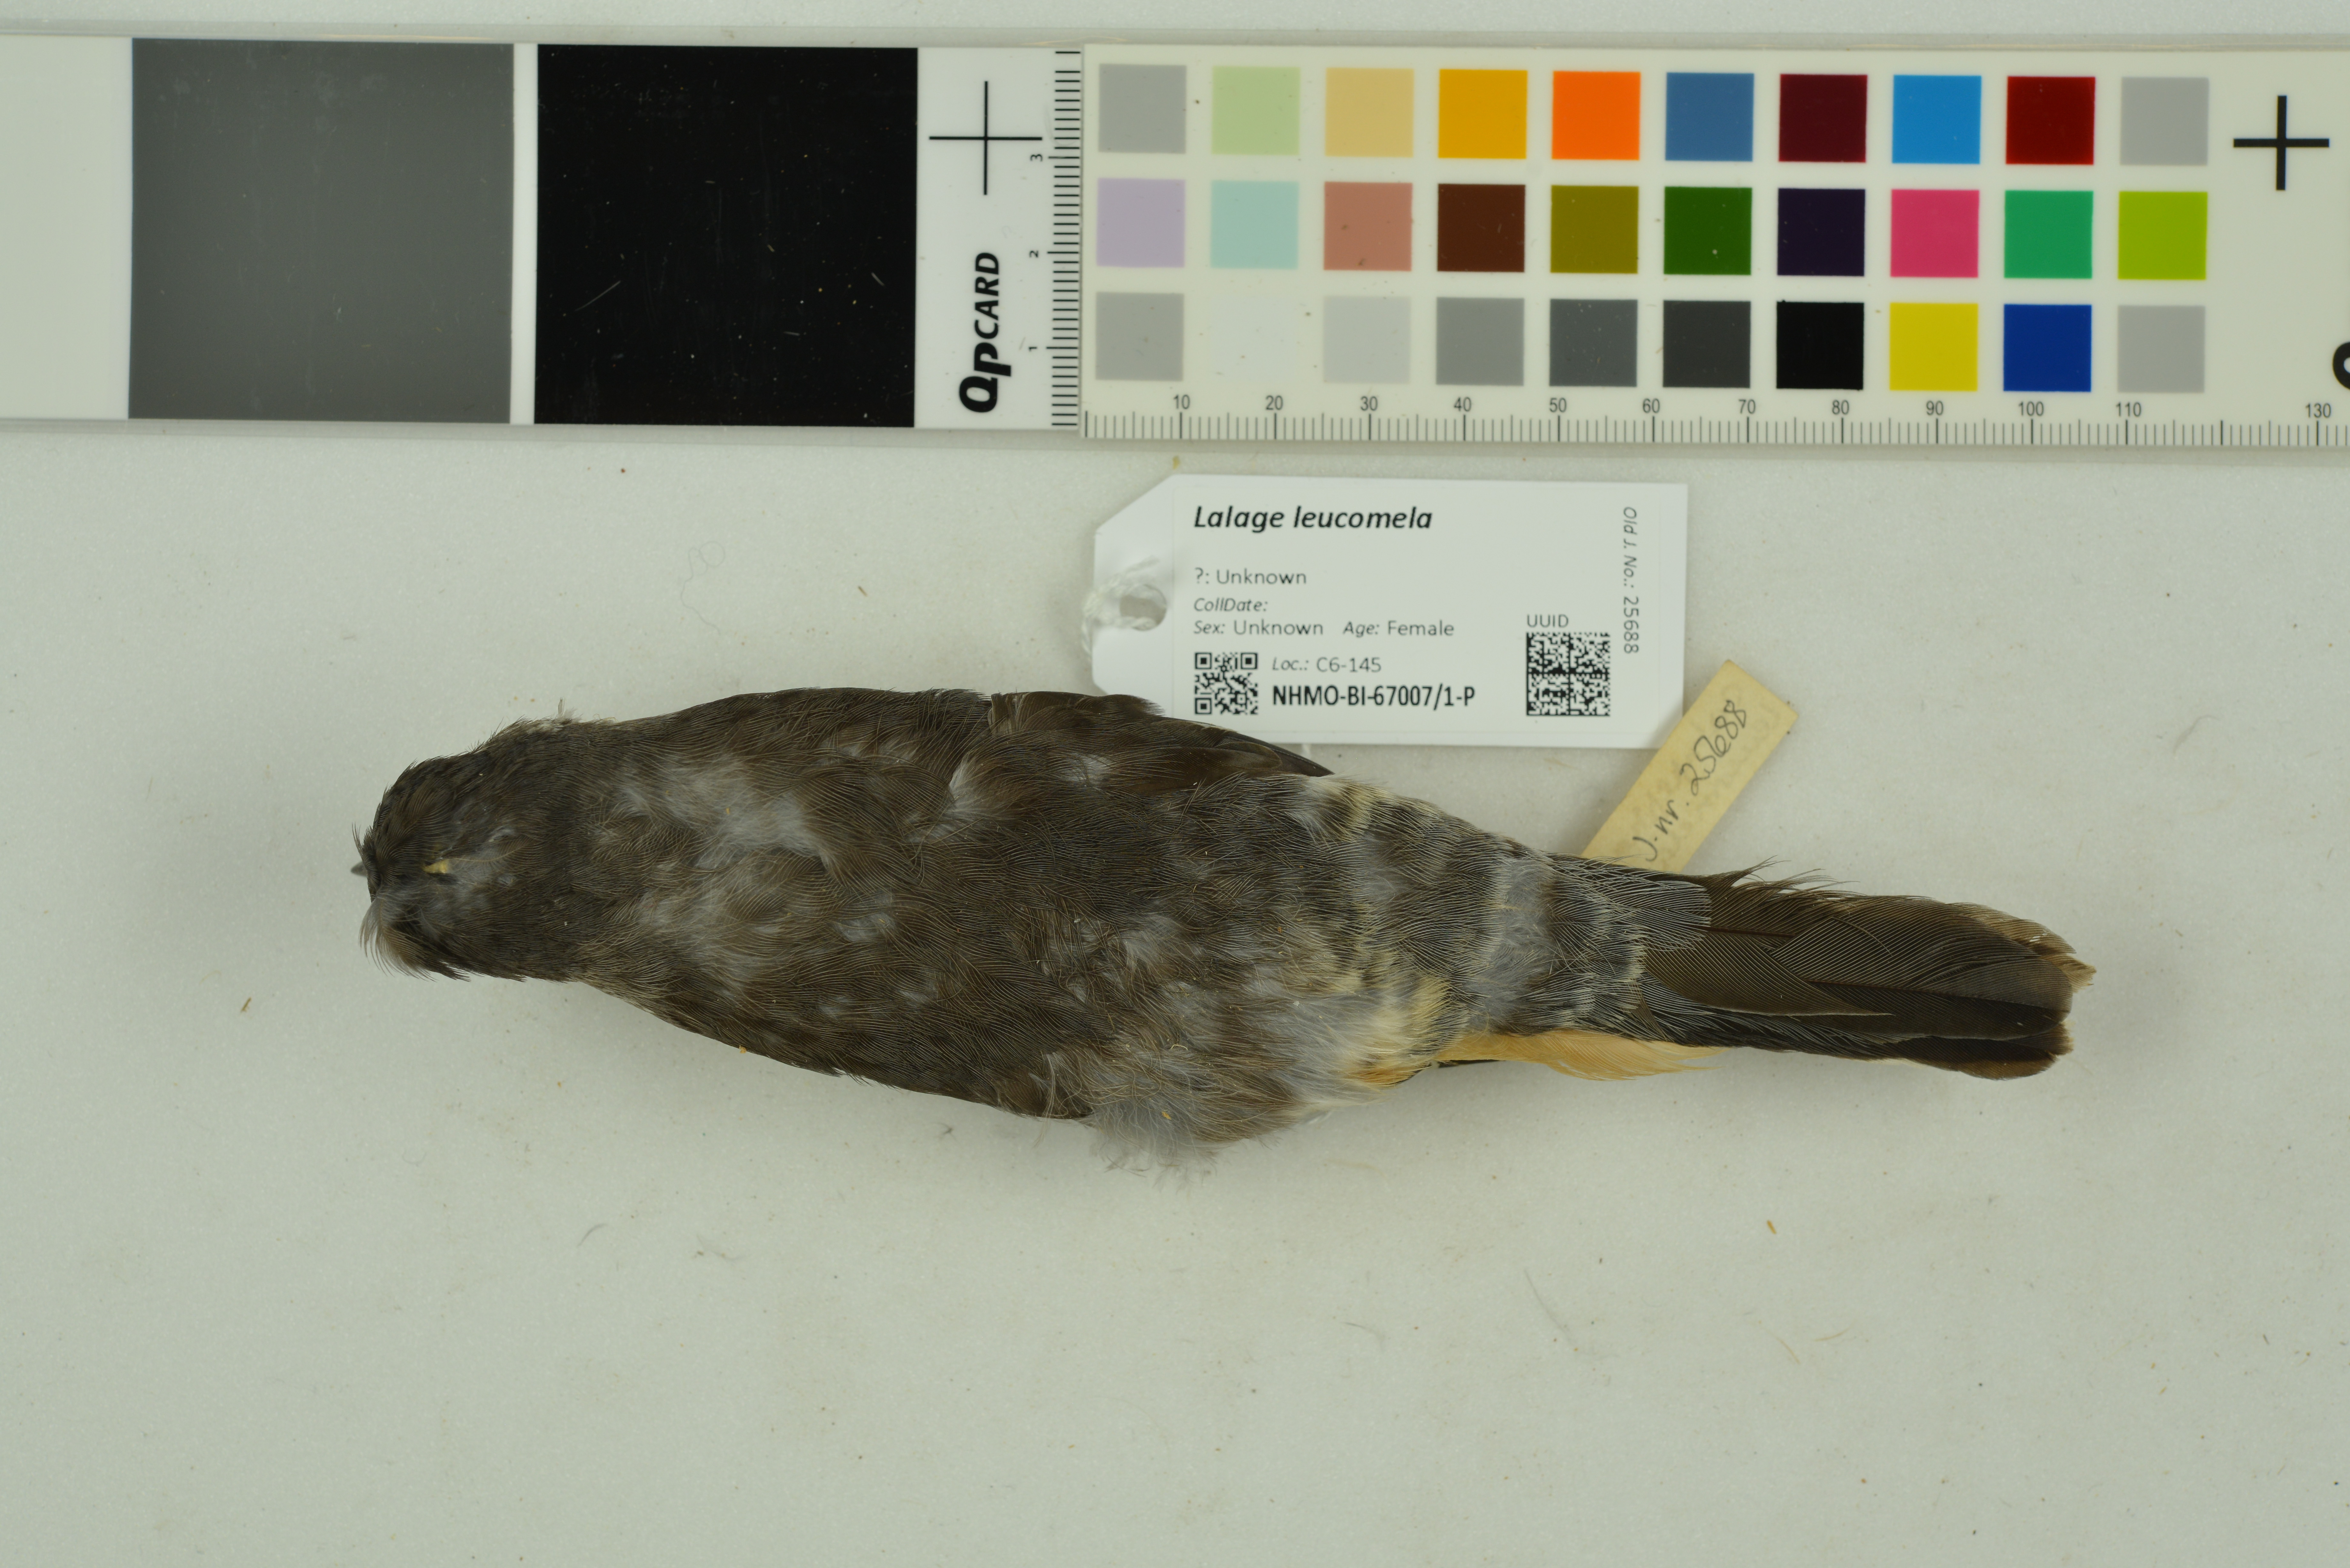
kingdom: Animalia
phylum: Chordata
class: Aves
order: Passeriformes
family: Campephagidae
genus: Lalage
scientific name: Lalage leucomela
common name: Varied triller
